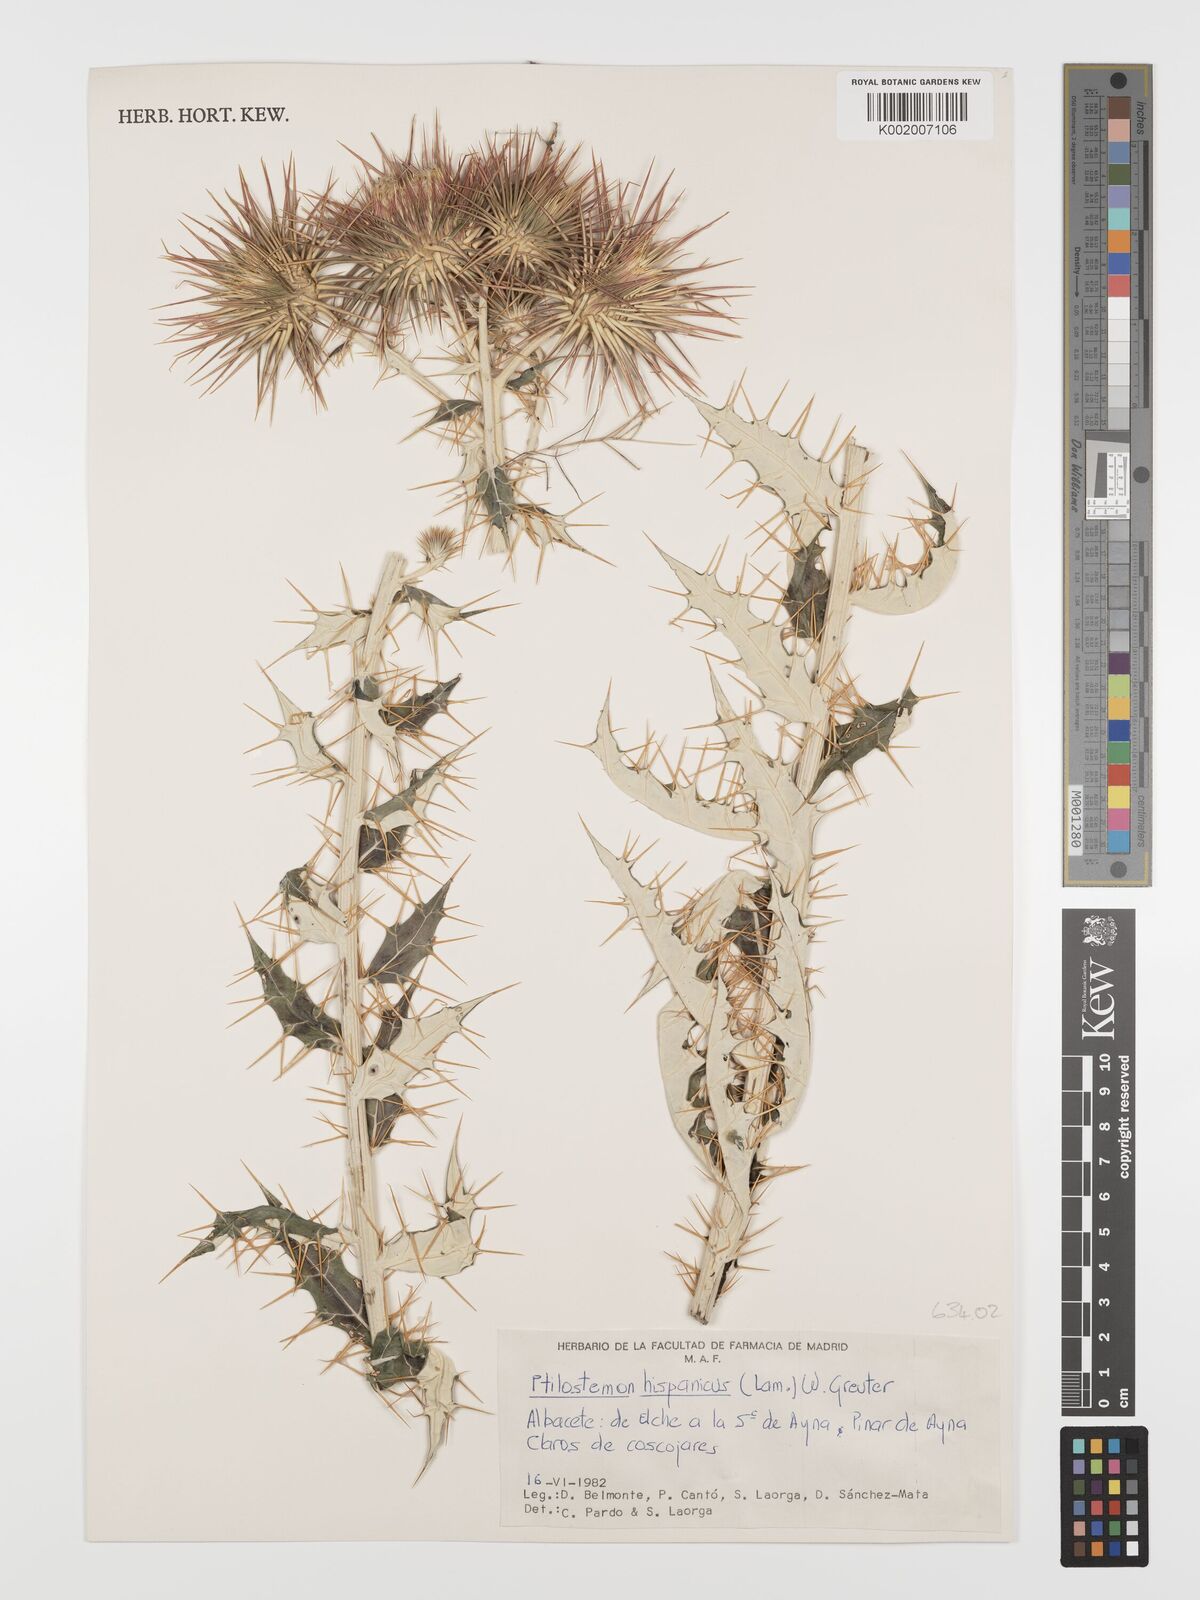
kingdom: Plantae
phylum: Tracheophyta
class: Magnoliopsida
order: Asterales
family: Asteraceae
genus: Ptilostemon
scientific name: Ptilostemon hispanicus
